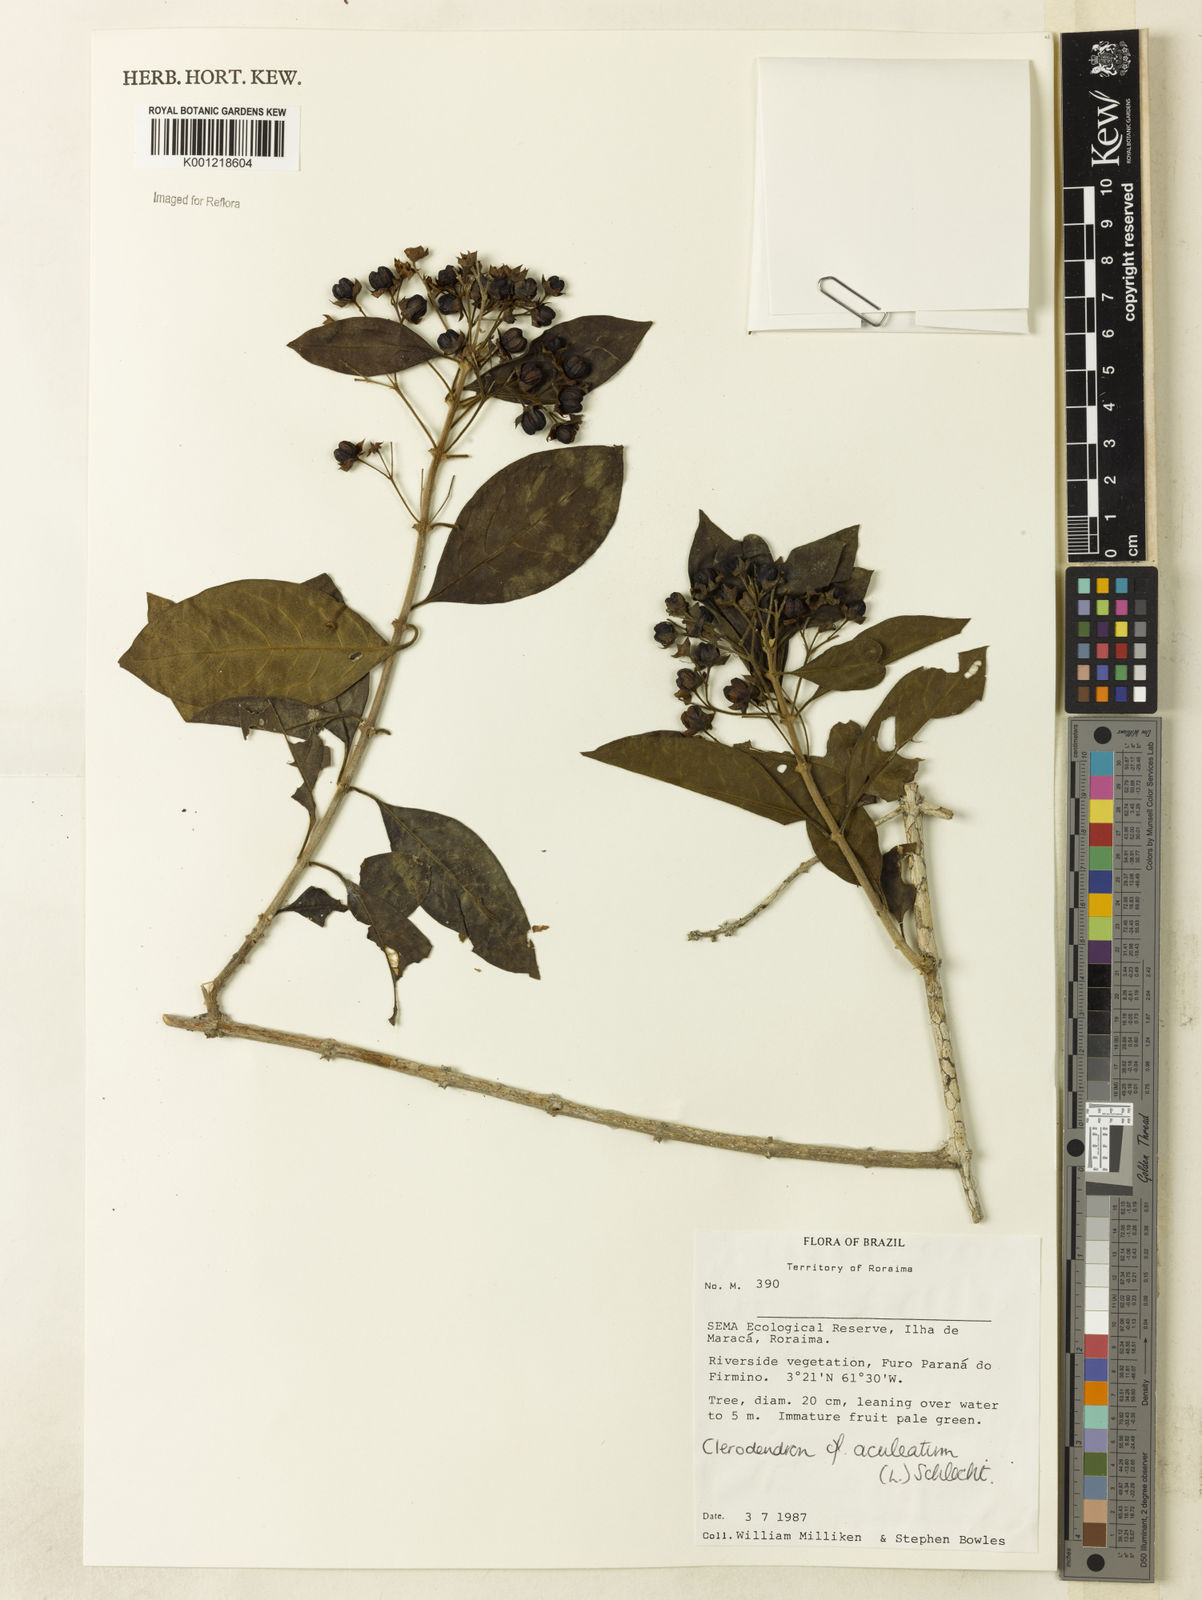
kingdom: Plantae
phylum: Tracheophyta
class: Magnoliopsida
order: Lamiales
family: Lamiaceae
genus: Volkameria
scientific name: Volkameria aculeata
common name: Prickly myrtle
